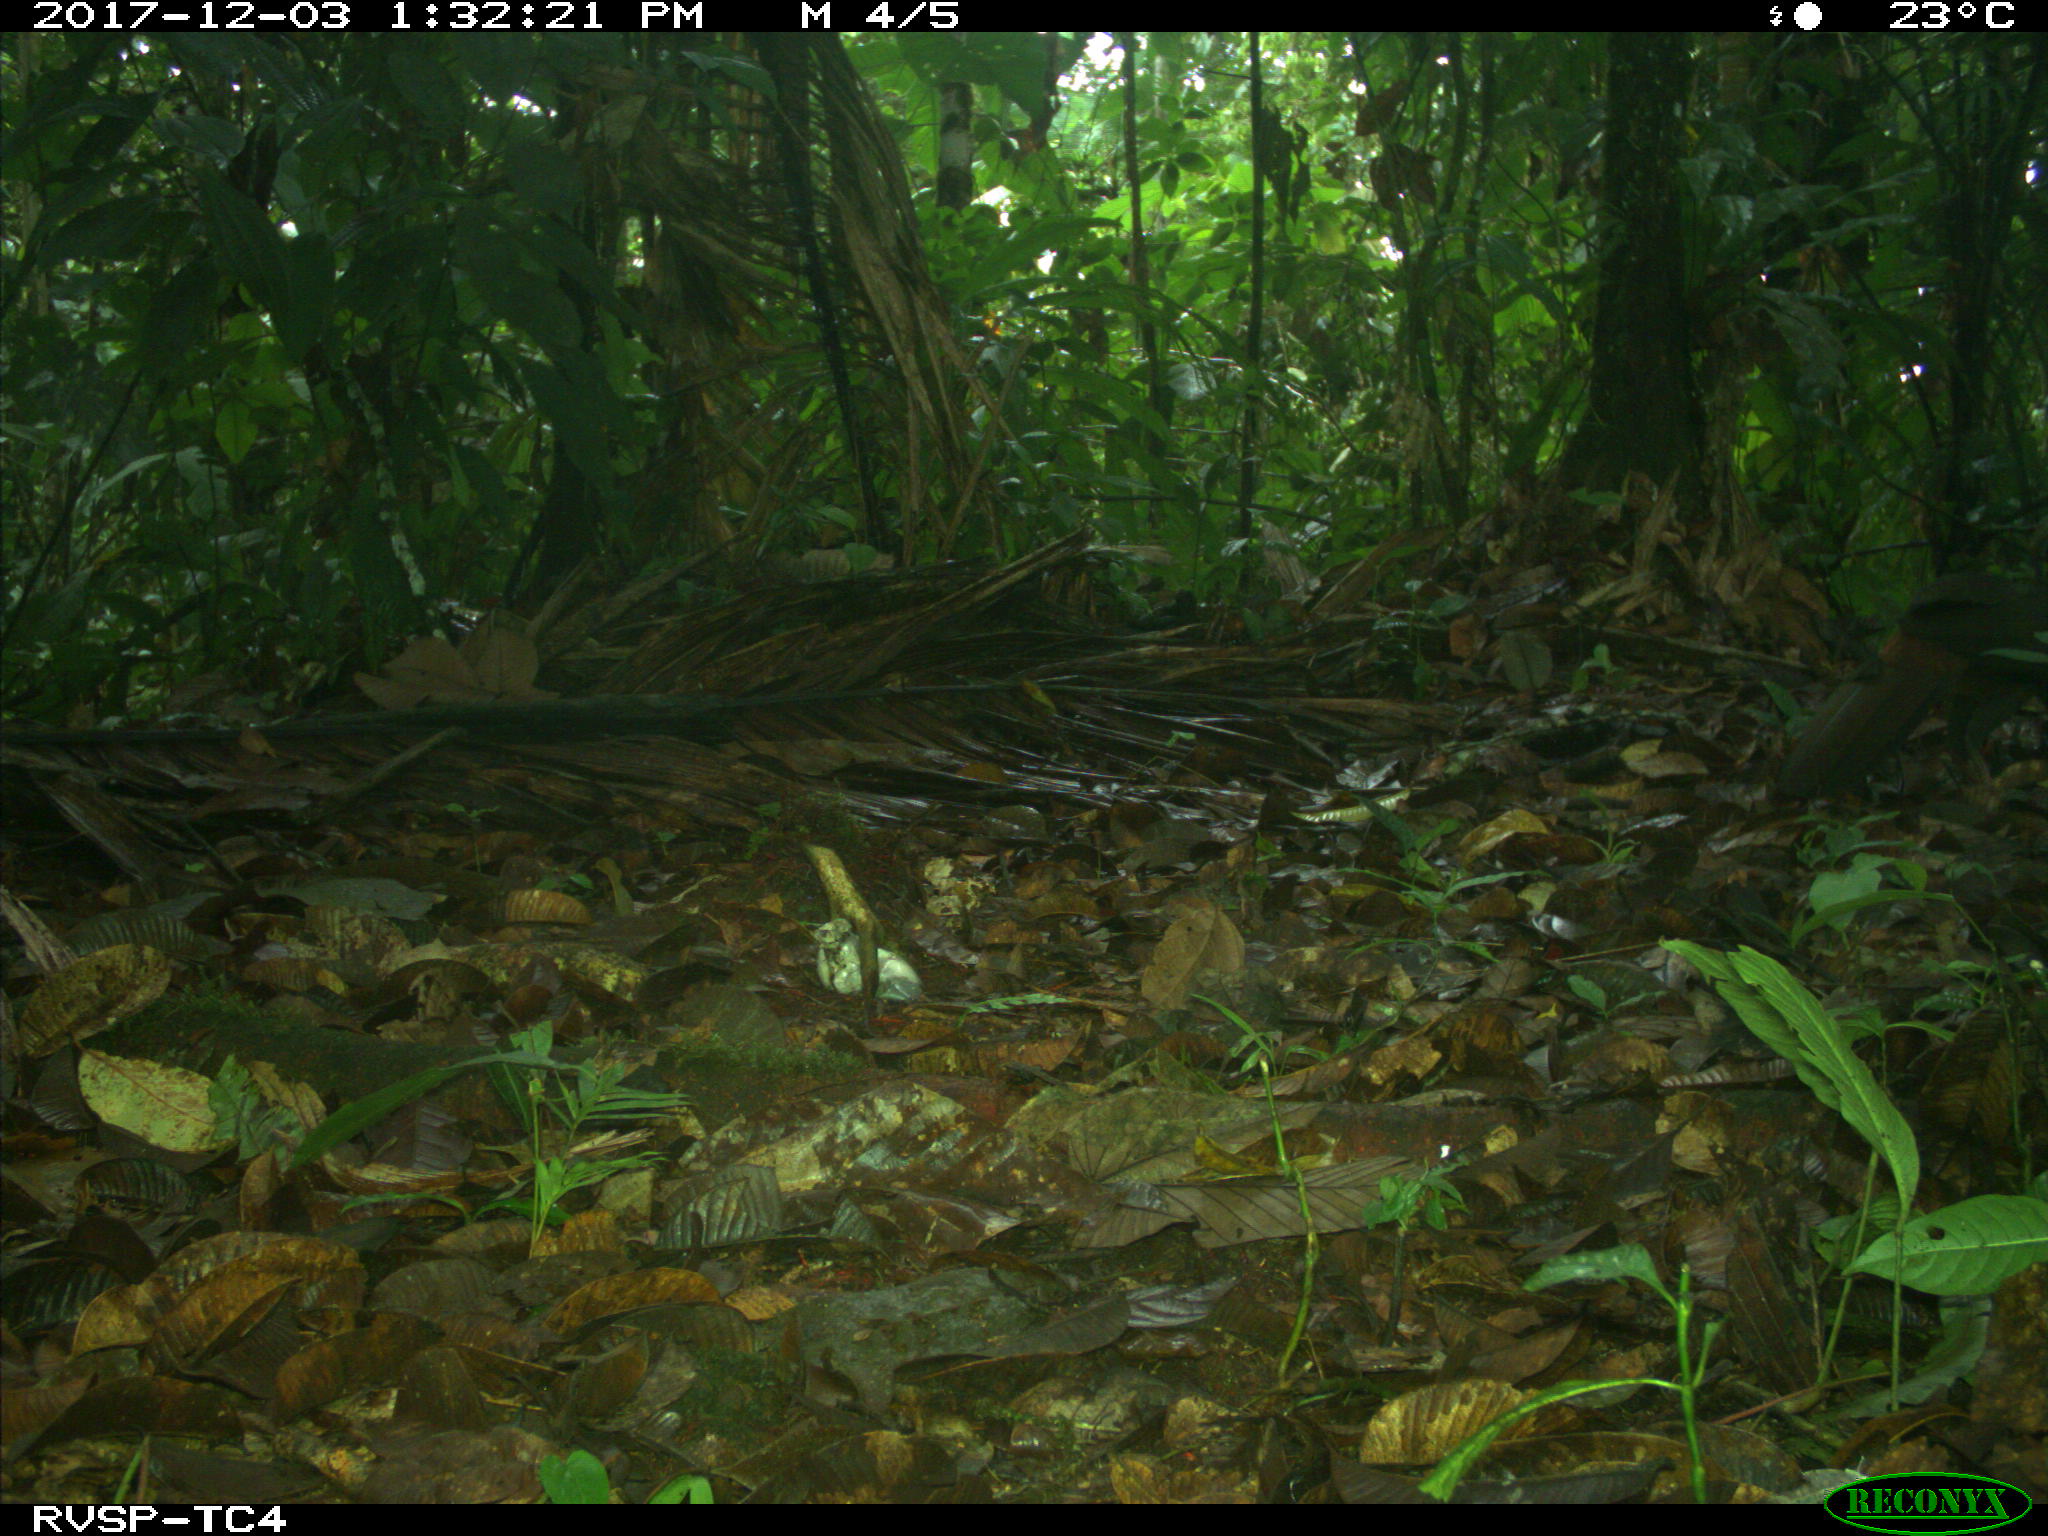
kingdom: Animalia
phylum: Chordata
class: Aves
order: Galliformes
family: Cracidae
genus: Penelope
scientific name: Penelope purpurascens
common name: Crested guan
